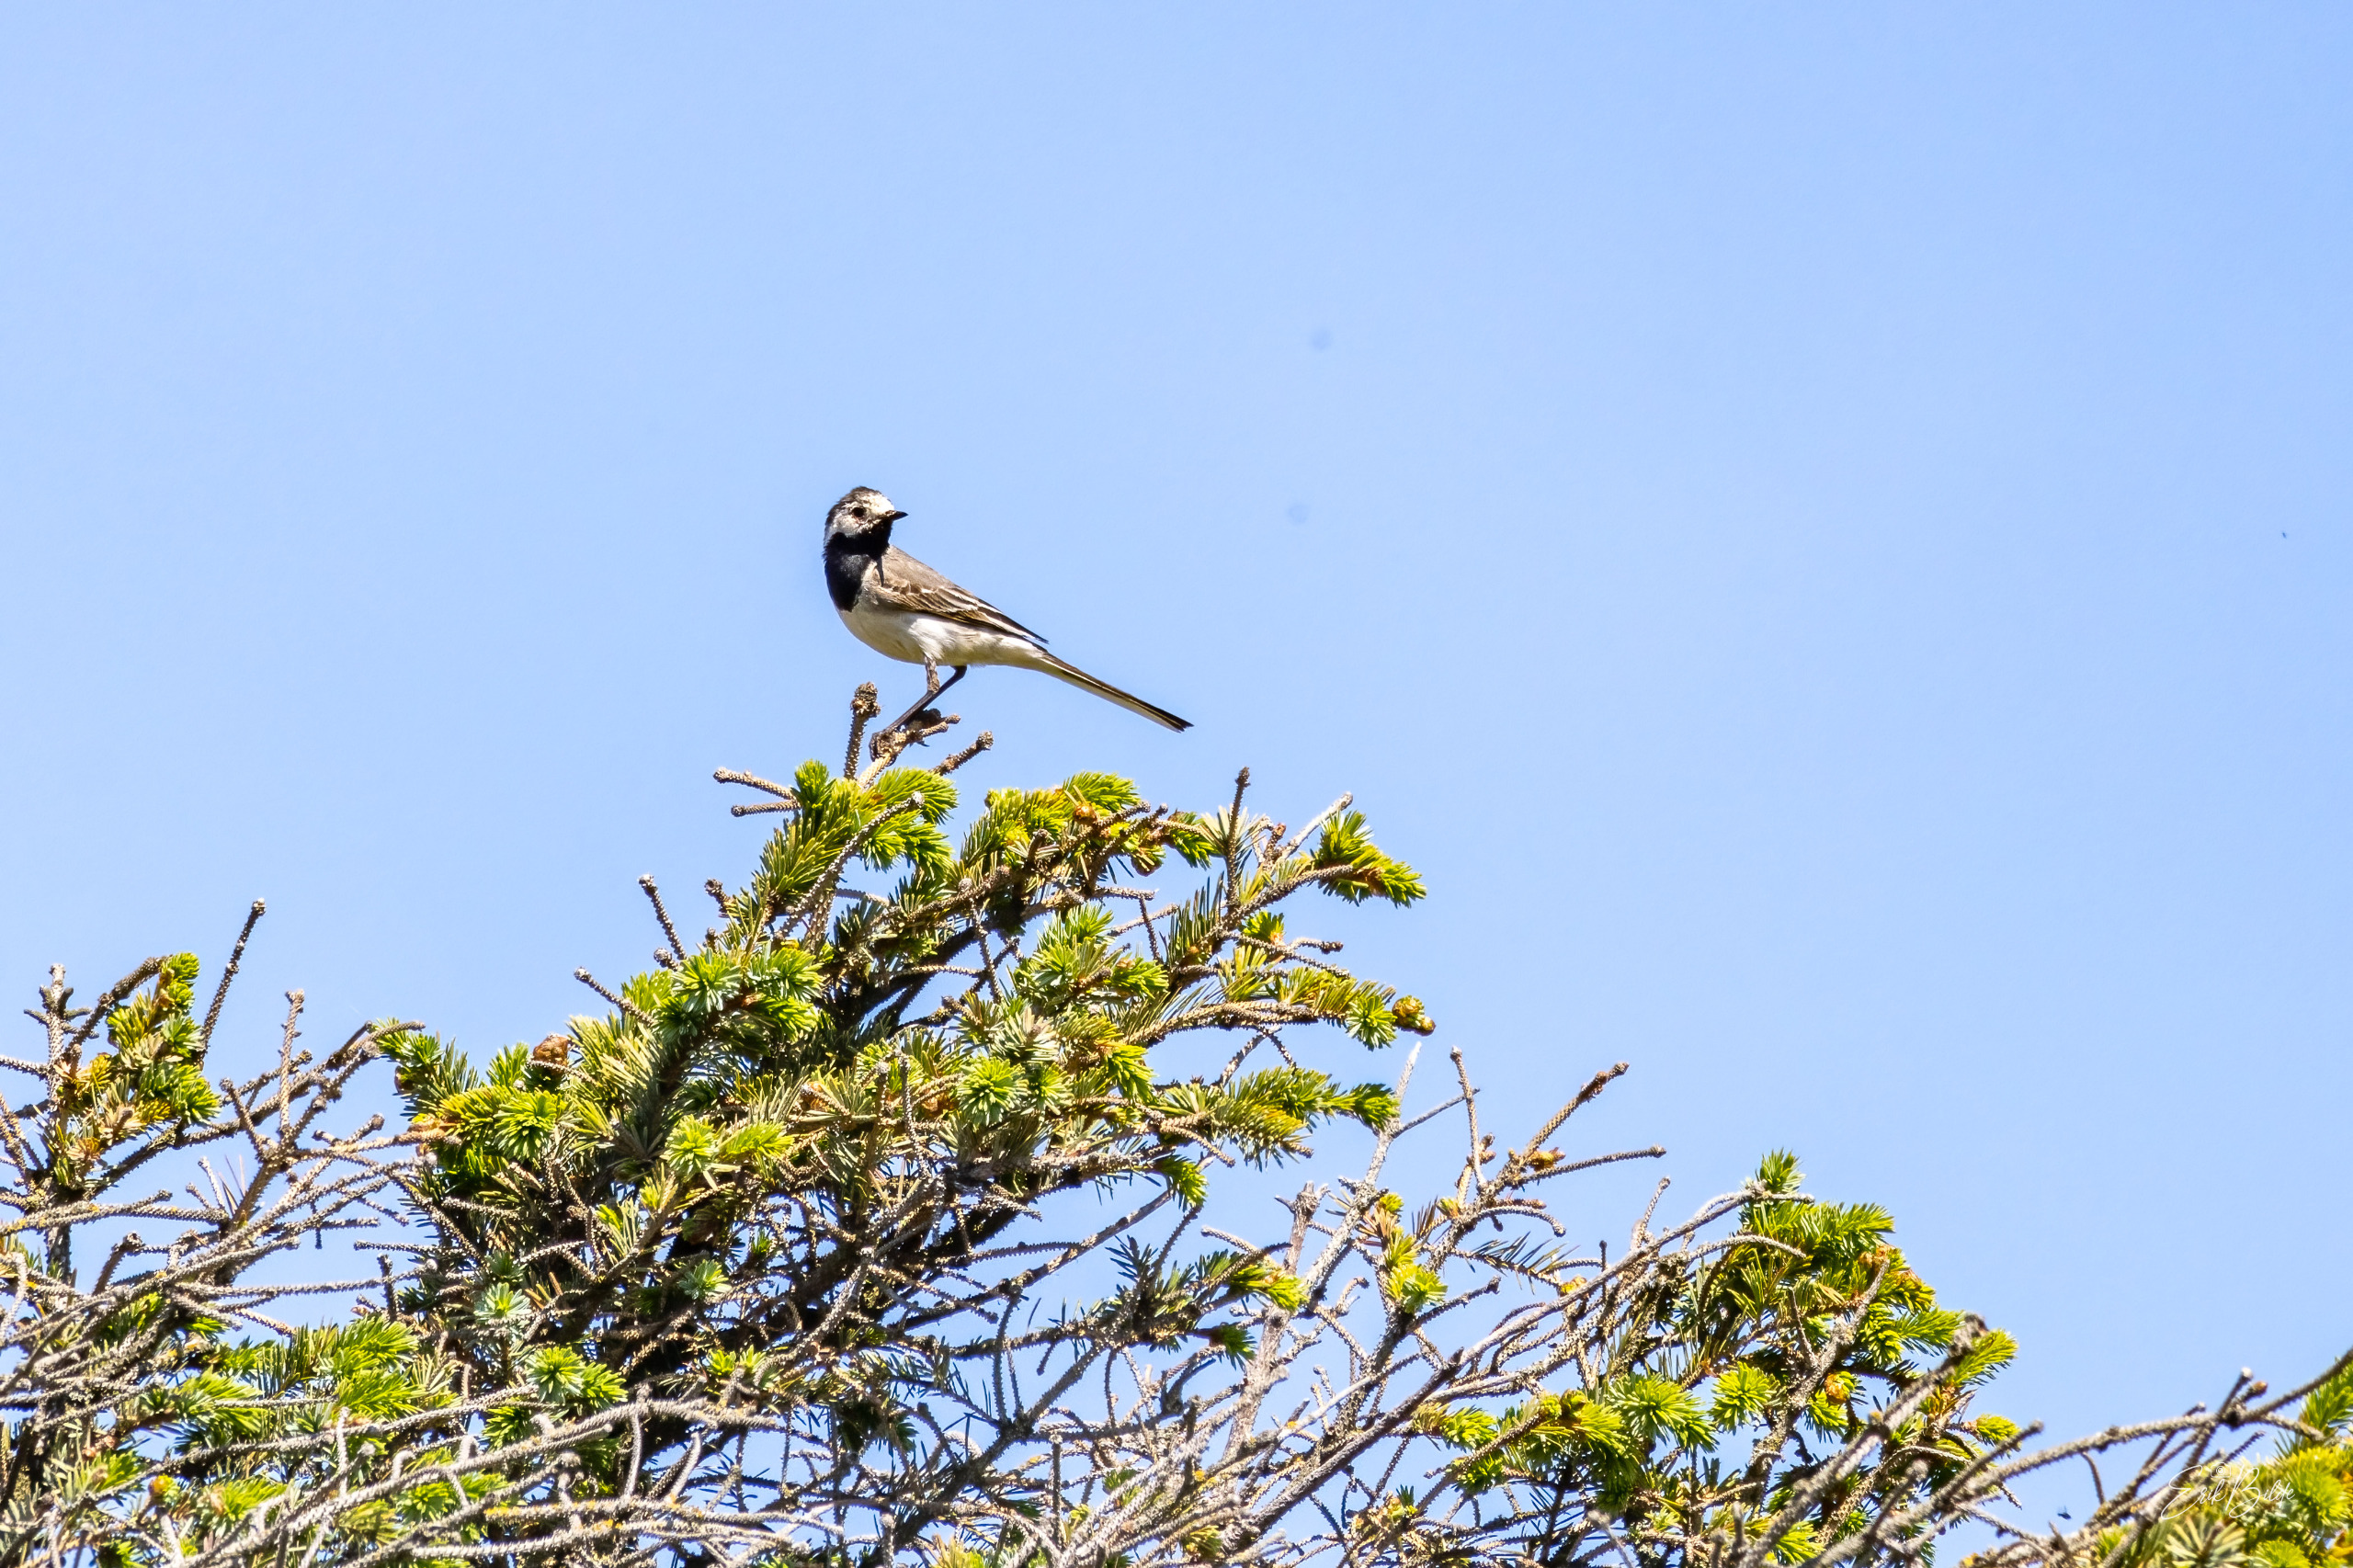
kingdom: Animalia
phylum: Chordata
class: Aves
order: Passeriformes
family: Motacillidae
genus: Motacilla
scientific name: Motacilla alba
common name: Hvid vipstjert
